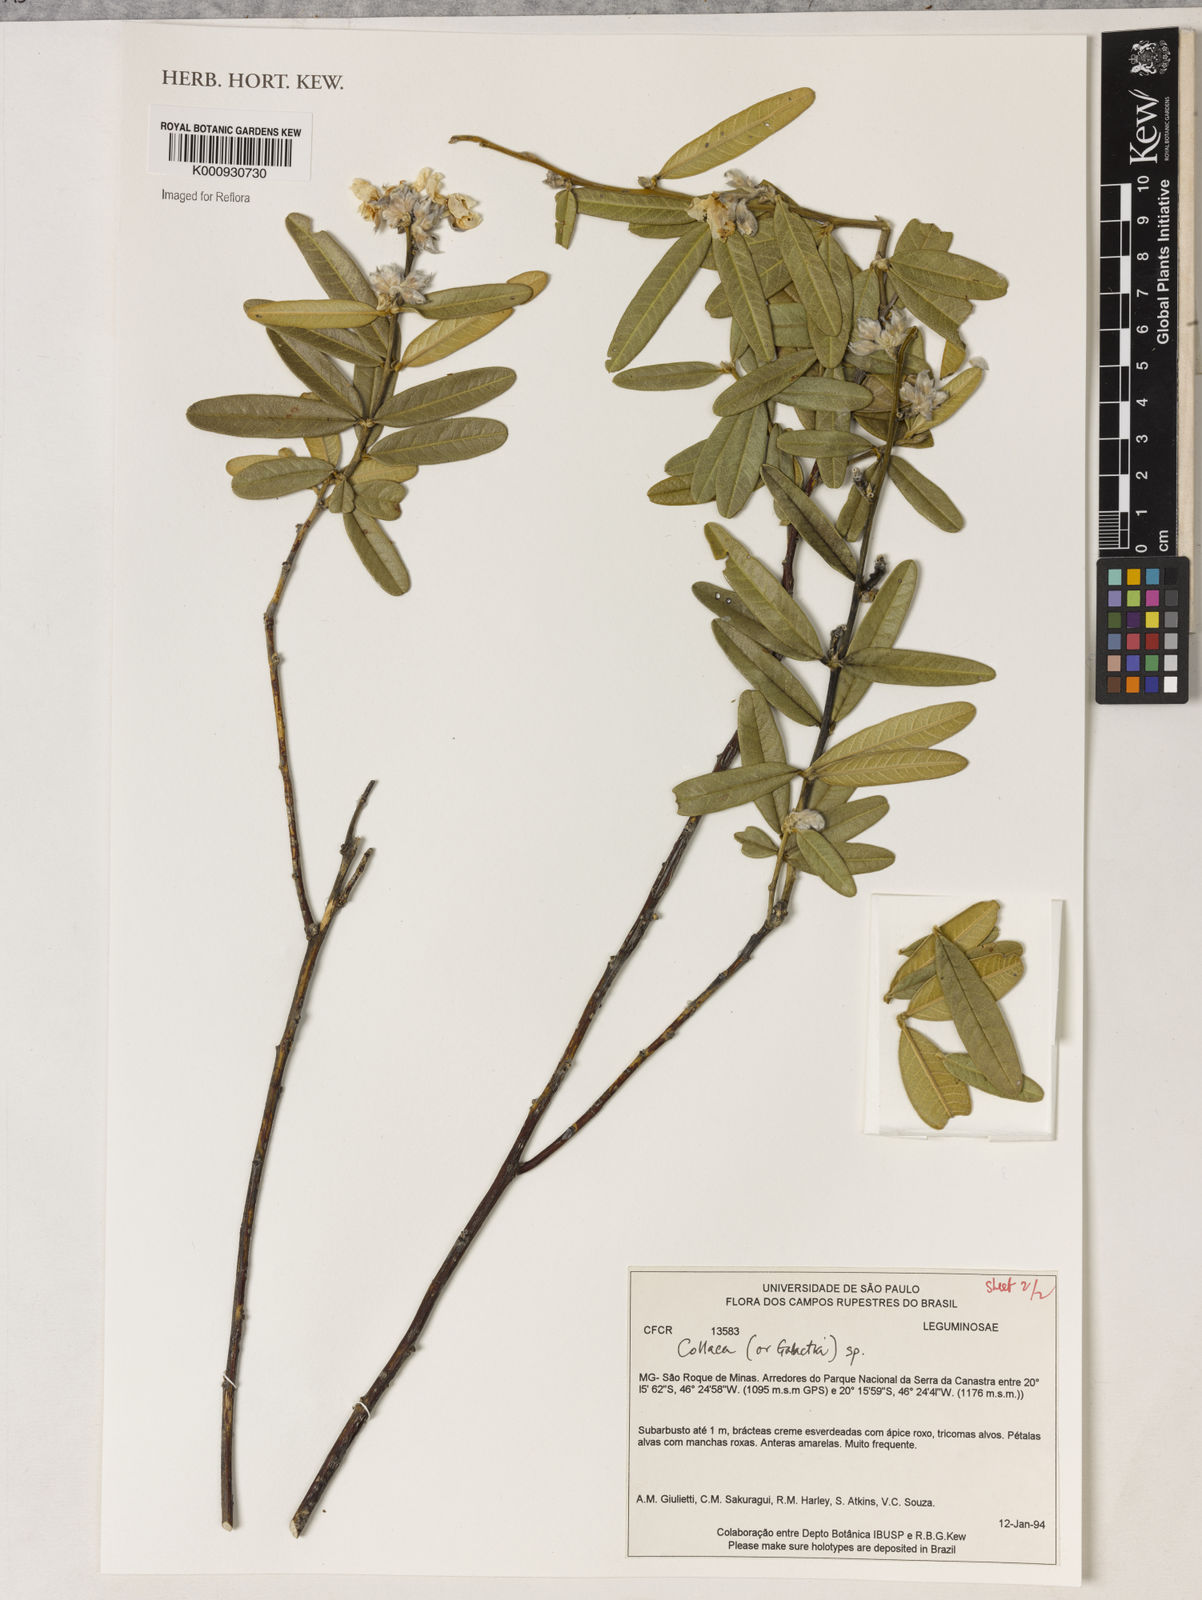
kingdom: Plantae
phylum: Tracheophyta
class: Liliopsida
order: Asparagales
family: Orchidaceae
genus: Pelexia
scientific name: Pelexia
